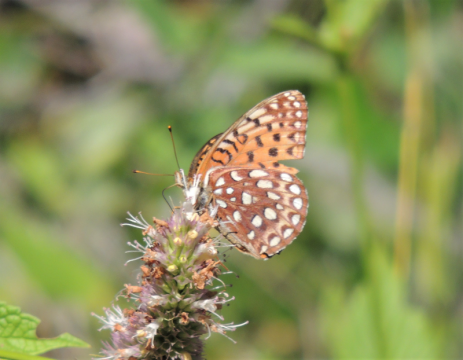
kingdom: Animalia
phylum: Arthropoda
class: Insecta
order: Lepidoptera
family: Nymphalidae
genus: Speyeria
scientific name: Speyeria atlantis
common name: Northwestern Fritillary
